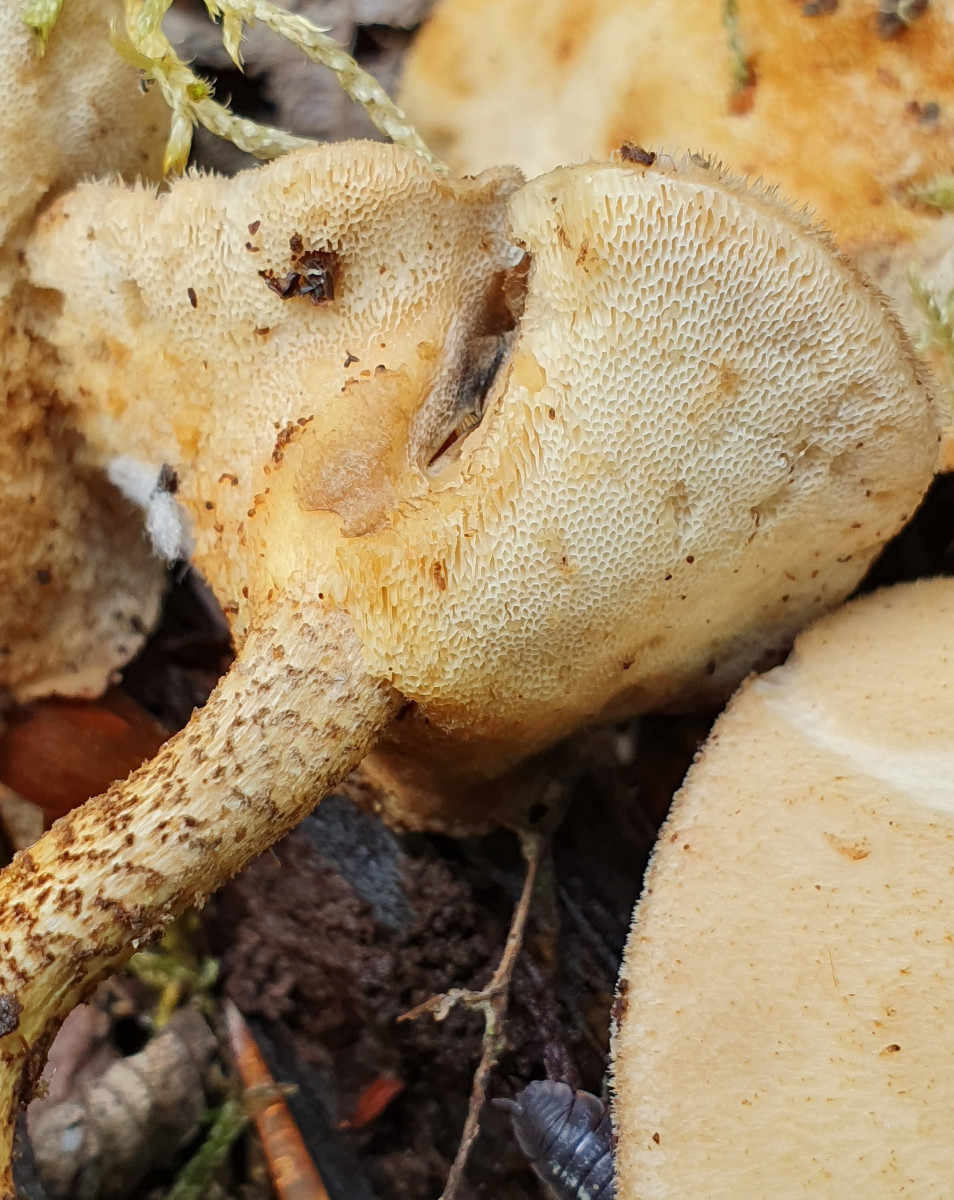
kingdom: Fungi
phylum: Basidiomycota
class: Agaricomycetes
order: Polyporales
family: Polyporaceae
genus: Lentinus
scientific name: Lentinus substrictus
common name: forårs-stilkporesvamp
